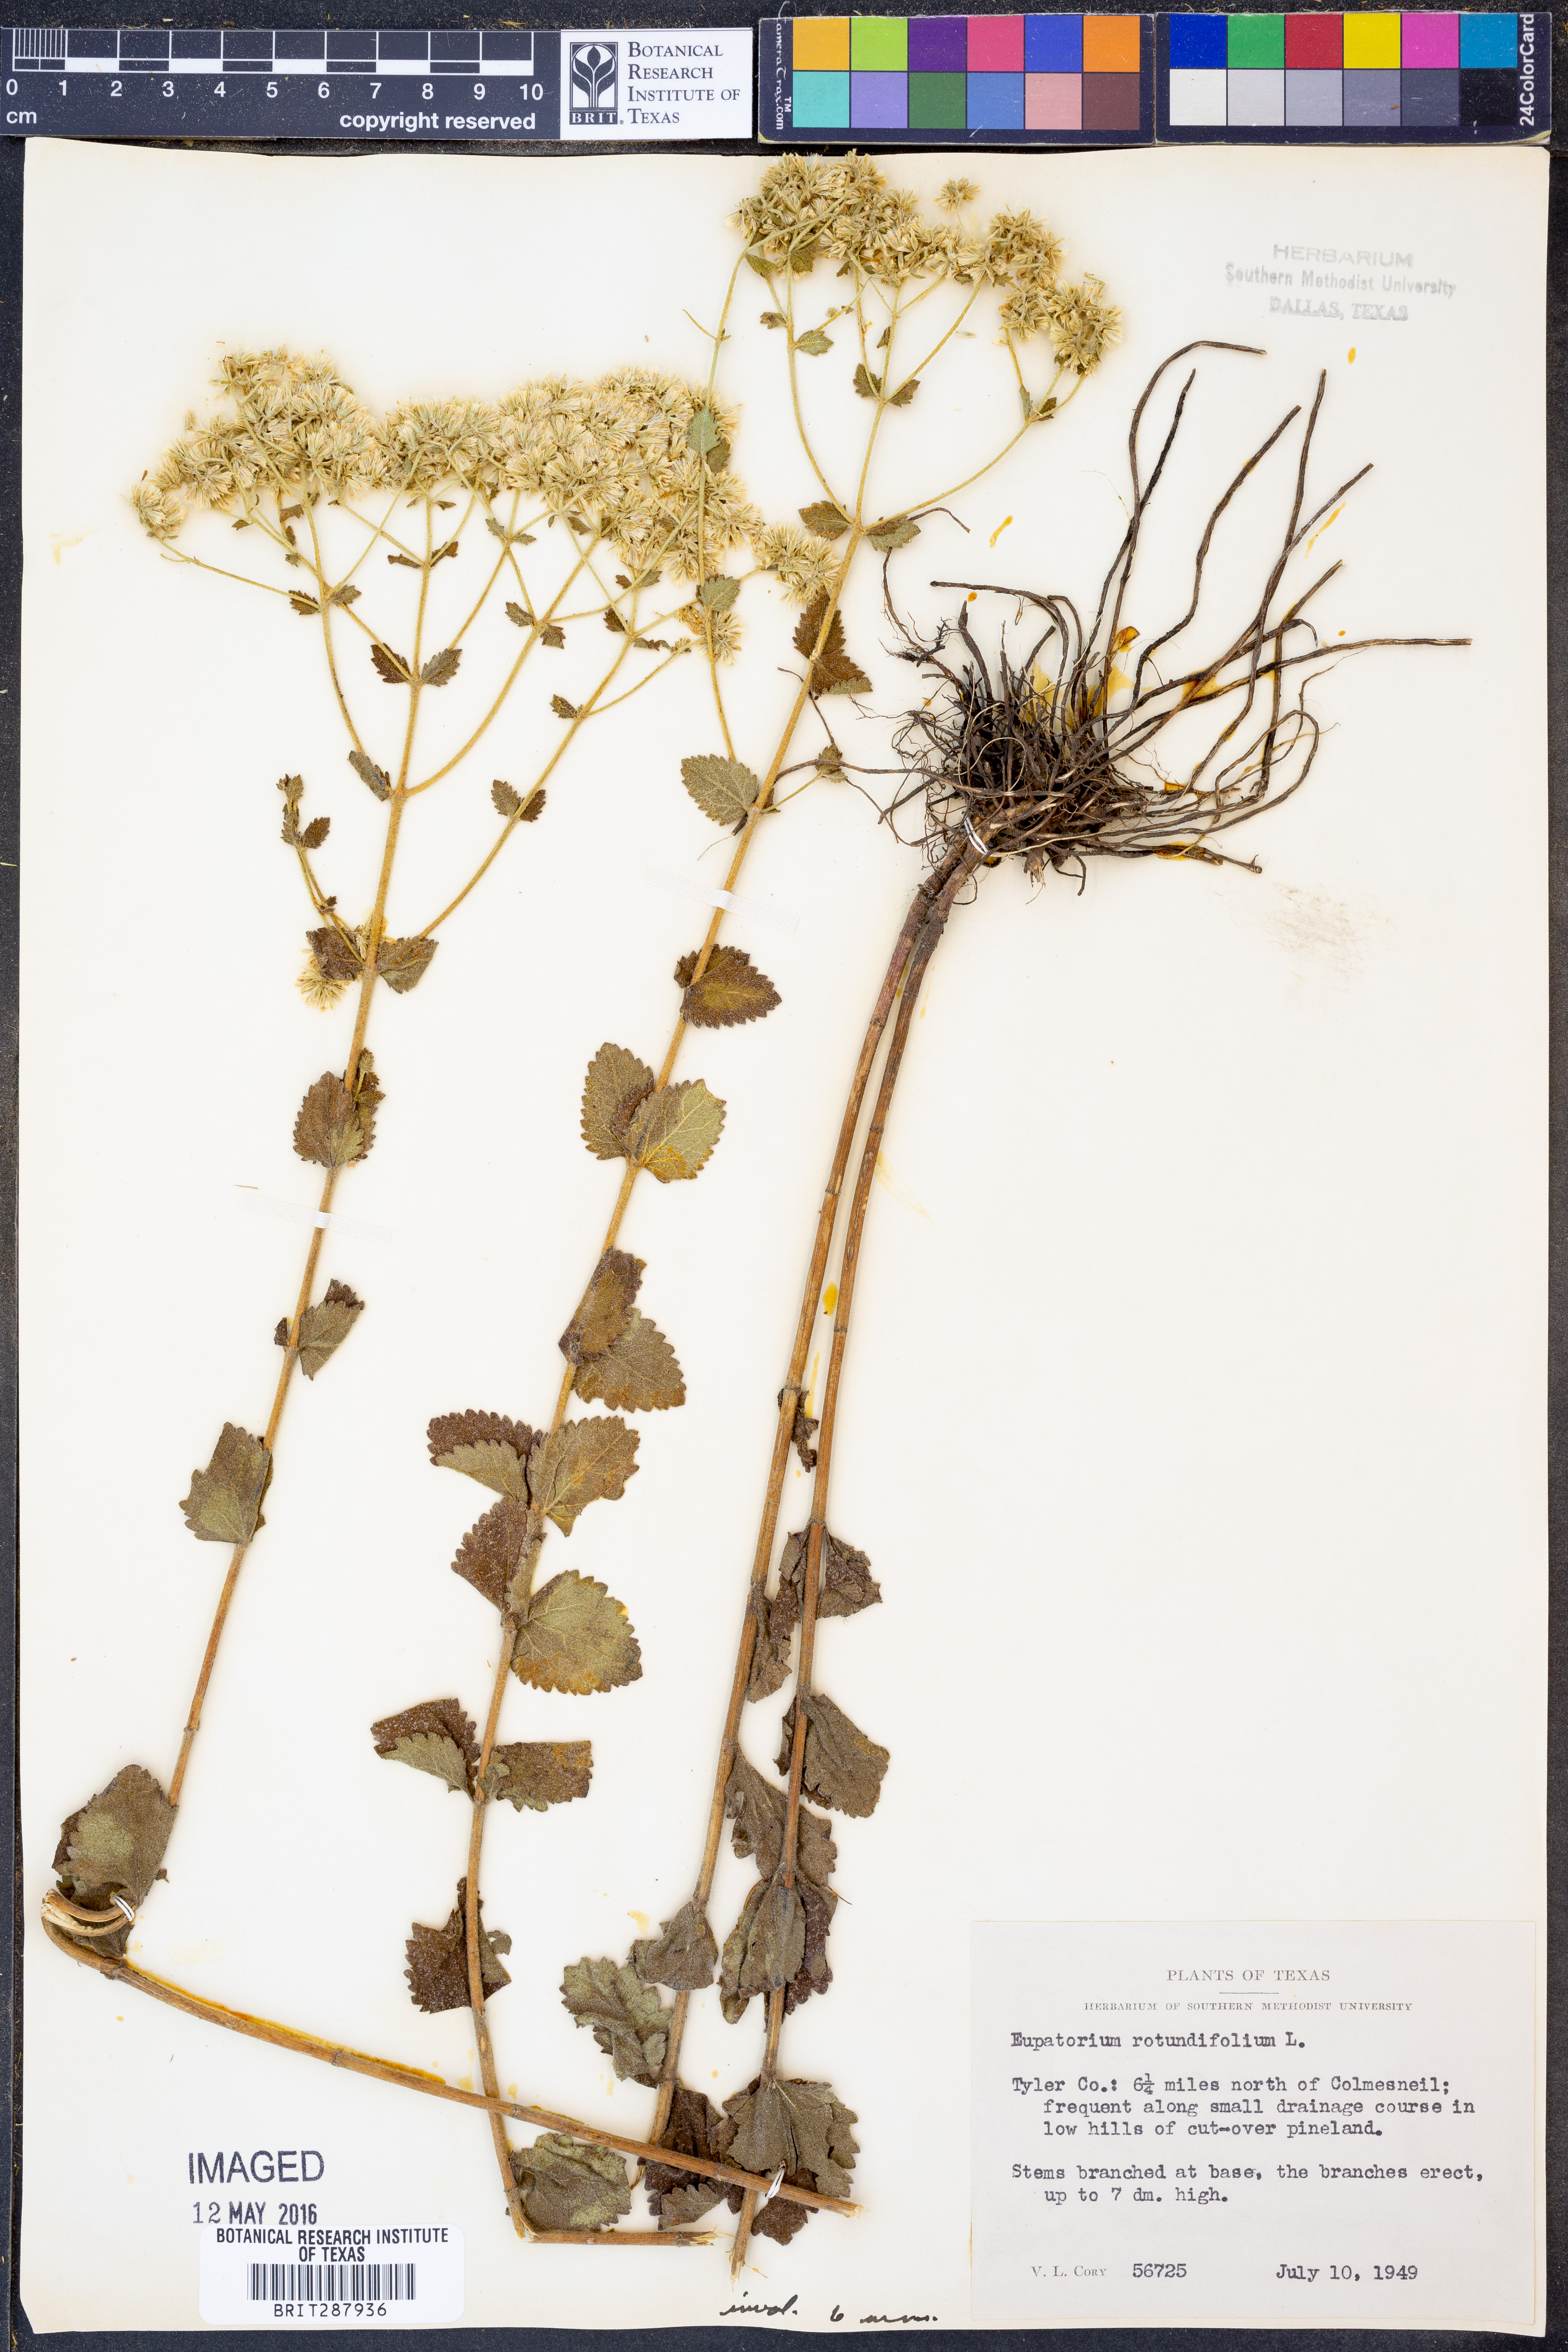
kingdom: Plantae
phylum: Tracheophyta
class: Magnoliopsida
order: Asterales
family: Asteraceae
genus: Eupatorium
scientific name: Eupatorium rotundifolium
